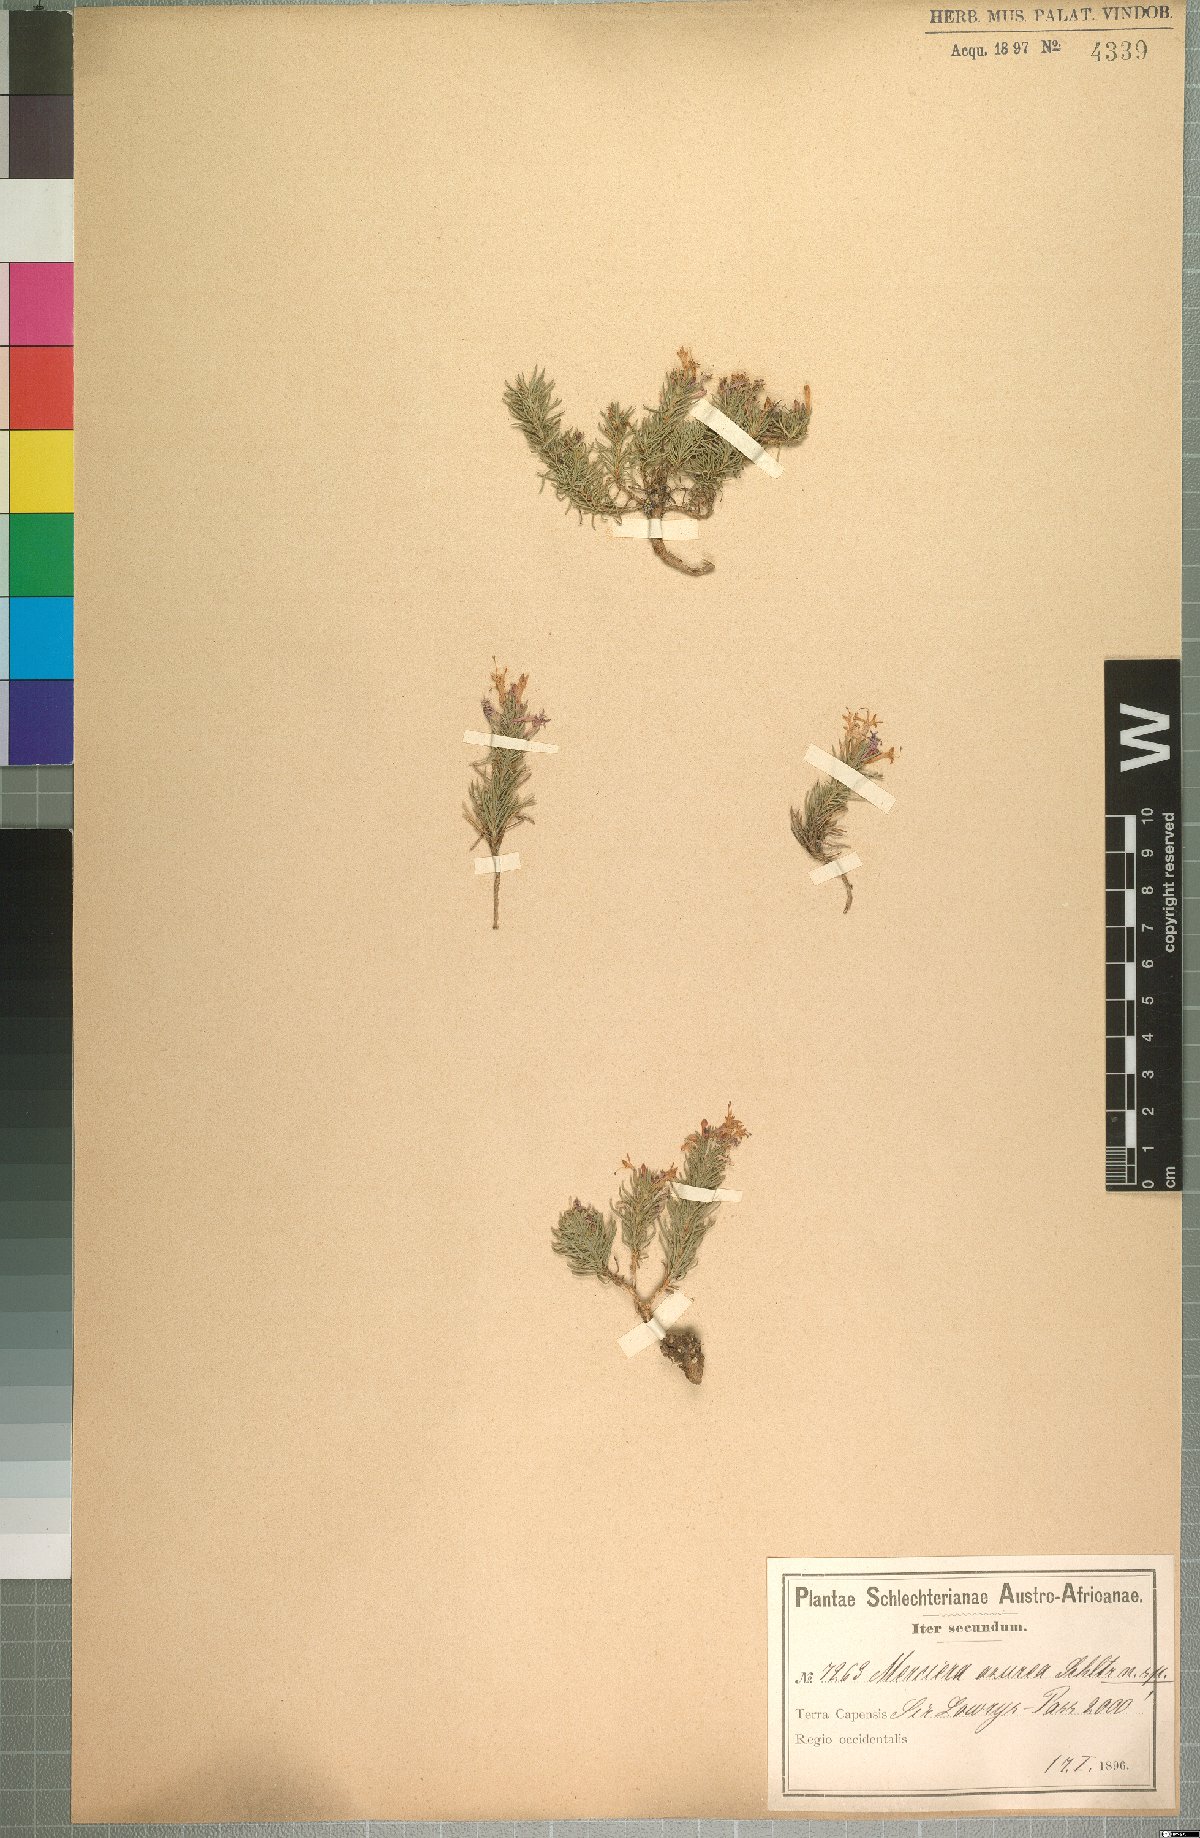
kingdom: Plantae
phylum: Tracheophyta
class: Magnoliopsida
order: Asterales
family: Campanulaceae
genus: Merciera
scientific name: Merciera azurea
